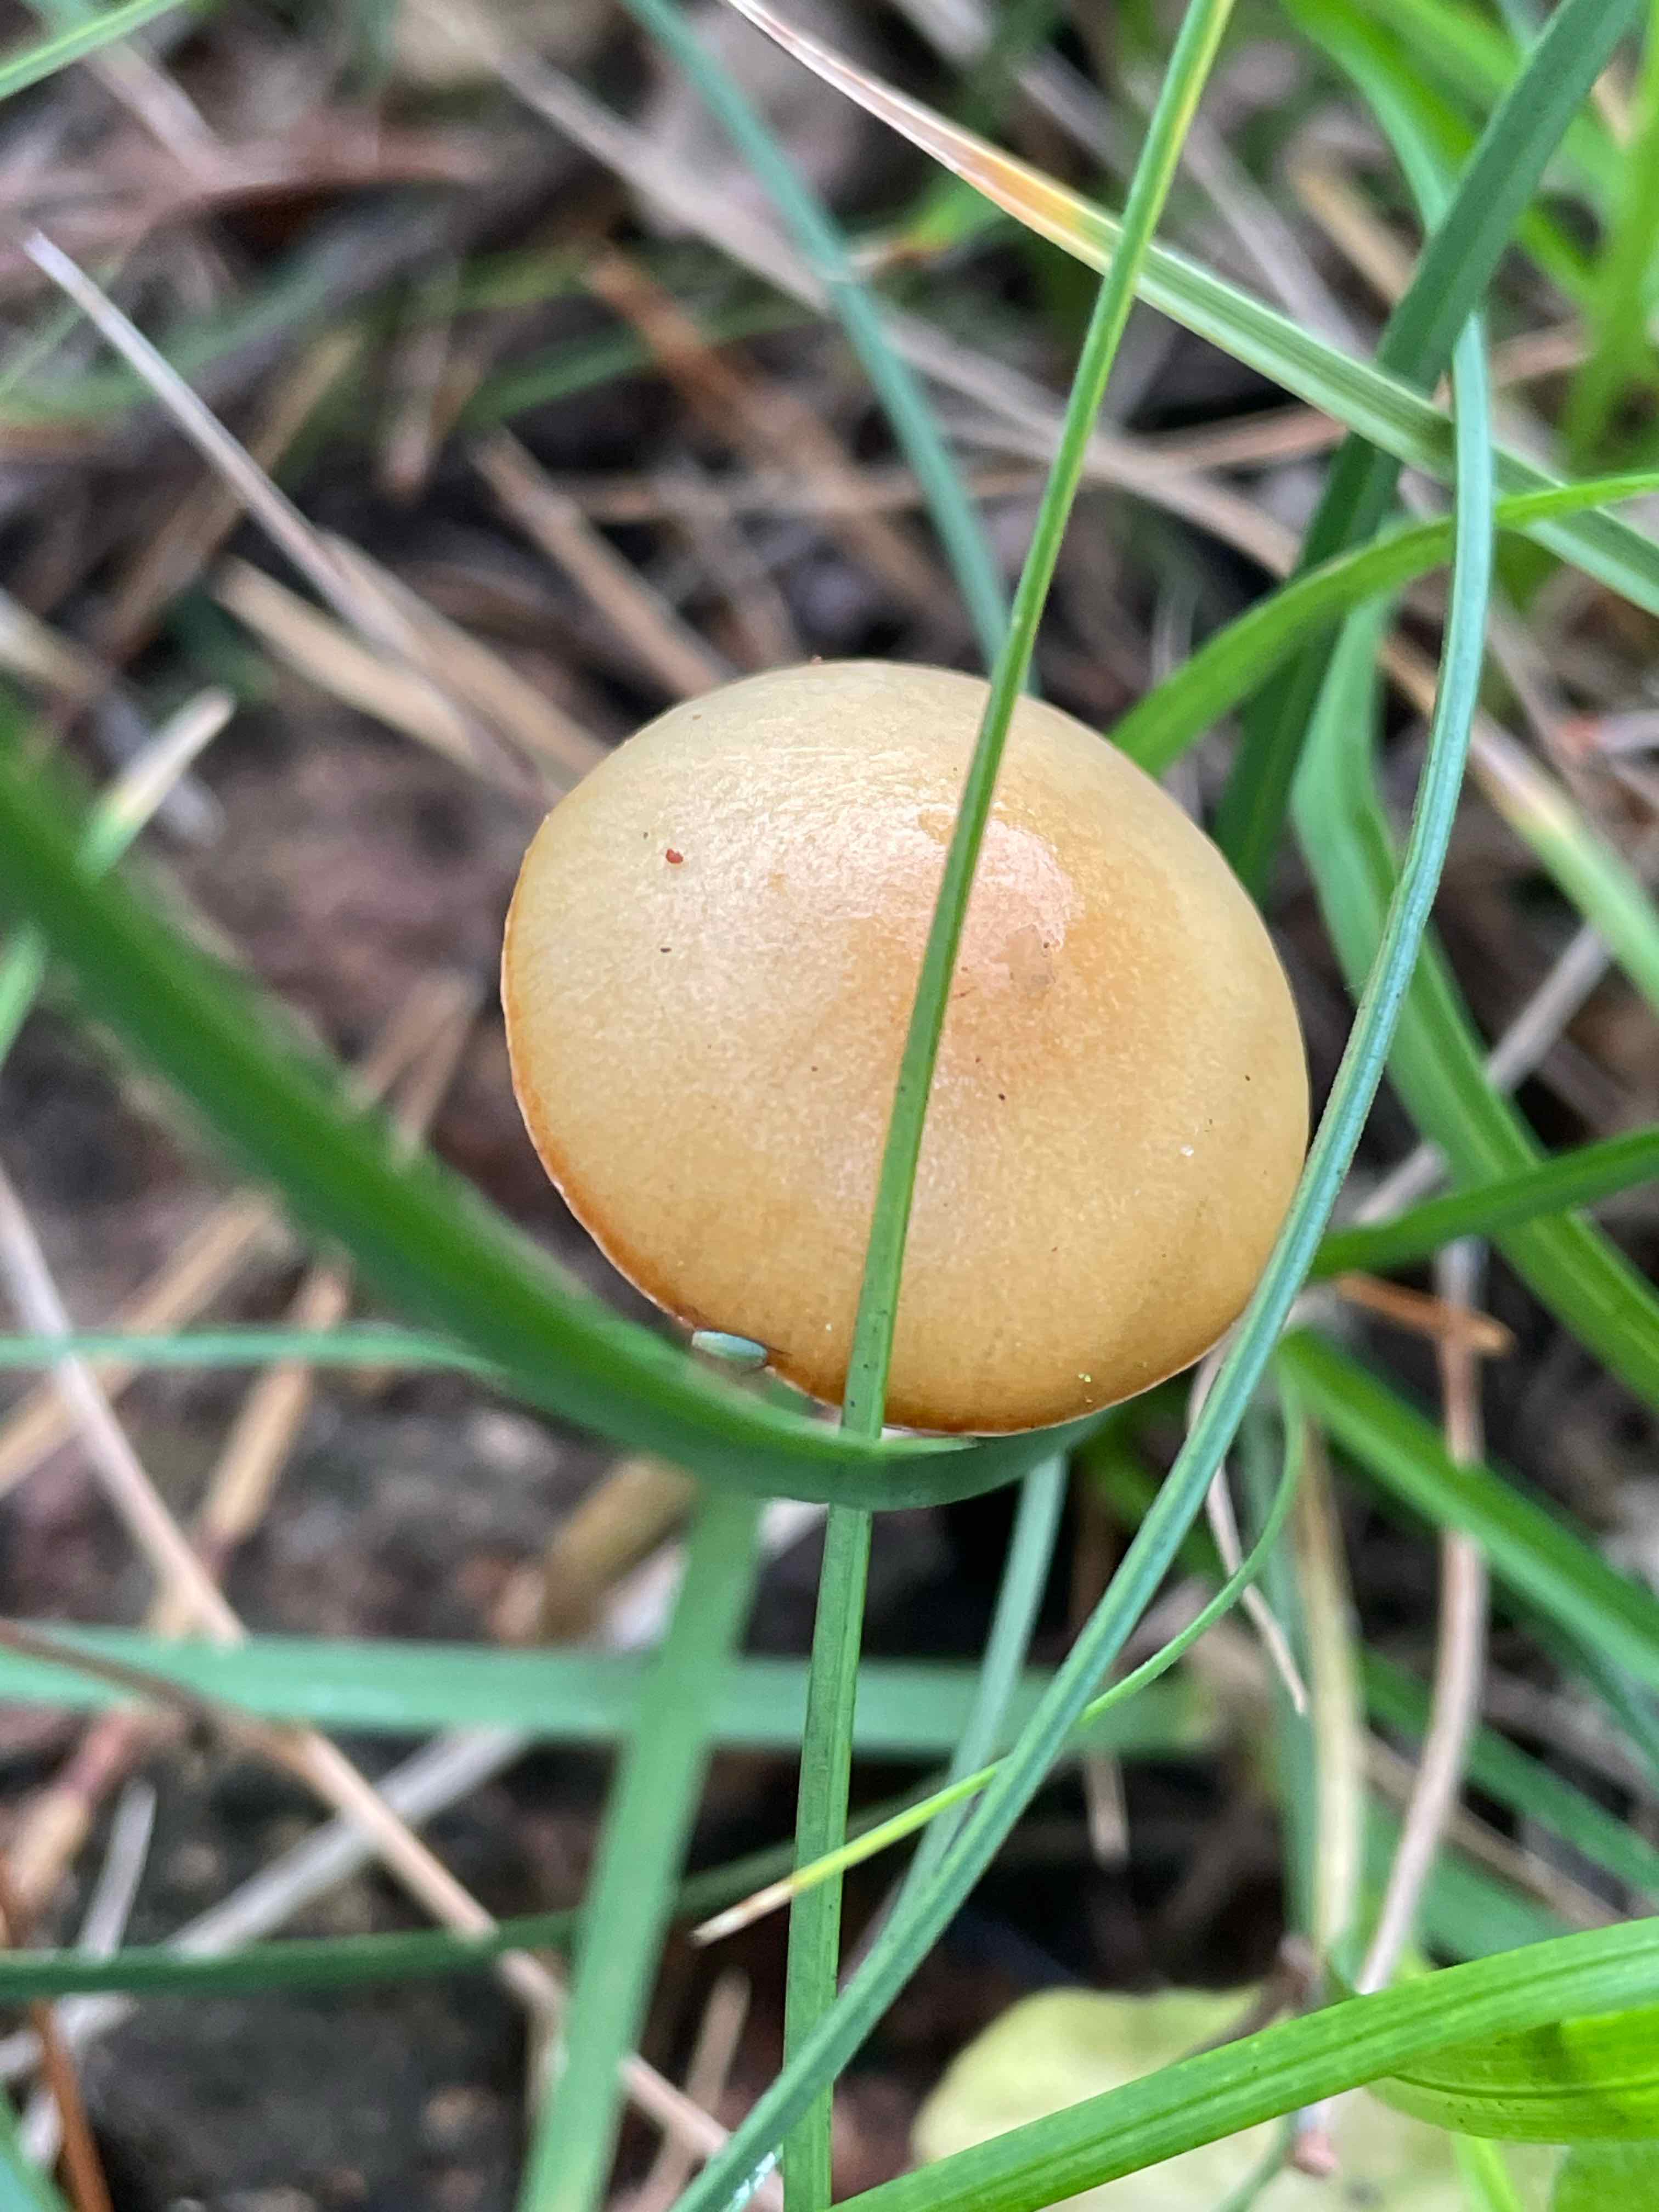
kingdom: Fungi
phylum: Basidiomycota
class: Agaricomycetes
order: Agaricales
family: Strophariaceae
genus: Protostropharia
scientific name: Protostropharia semiglobata
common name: halvkugleformet bredblad
